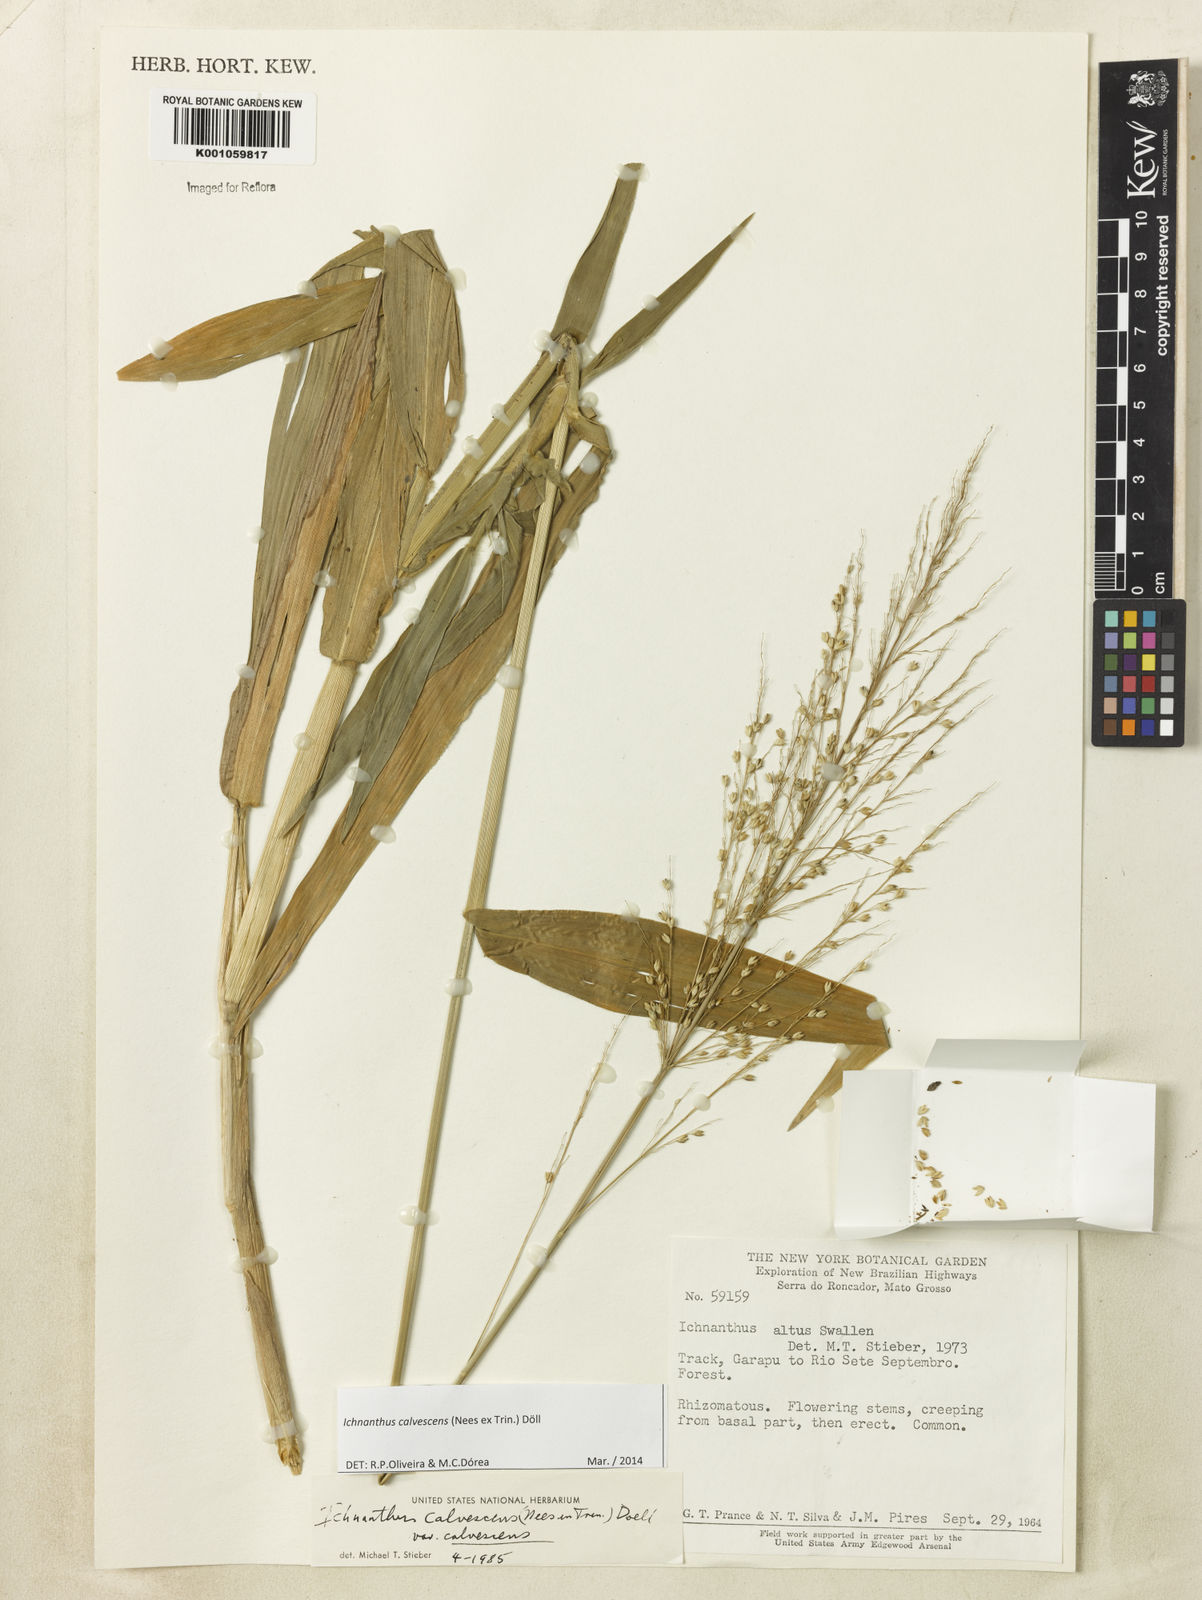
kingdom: Plantae
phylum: Tracheophyta
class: Liliopsida
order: Poales
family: Poaceae
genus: Ichnanthus
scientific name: Ichnanthus
